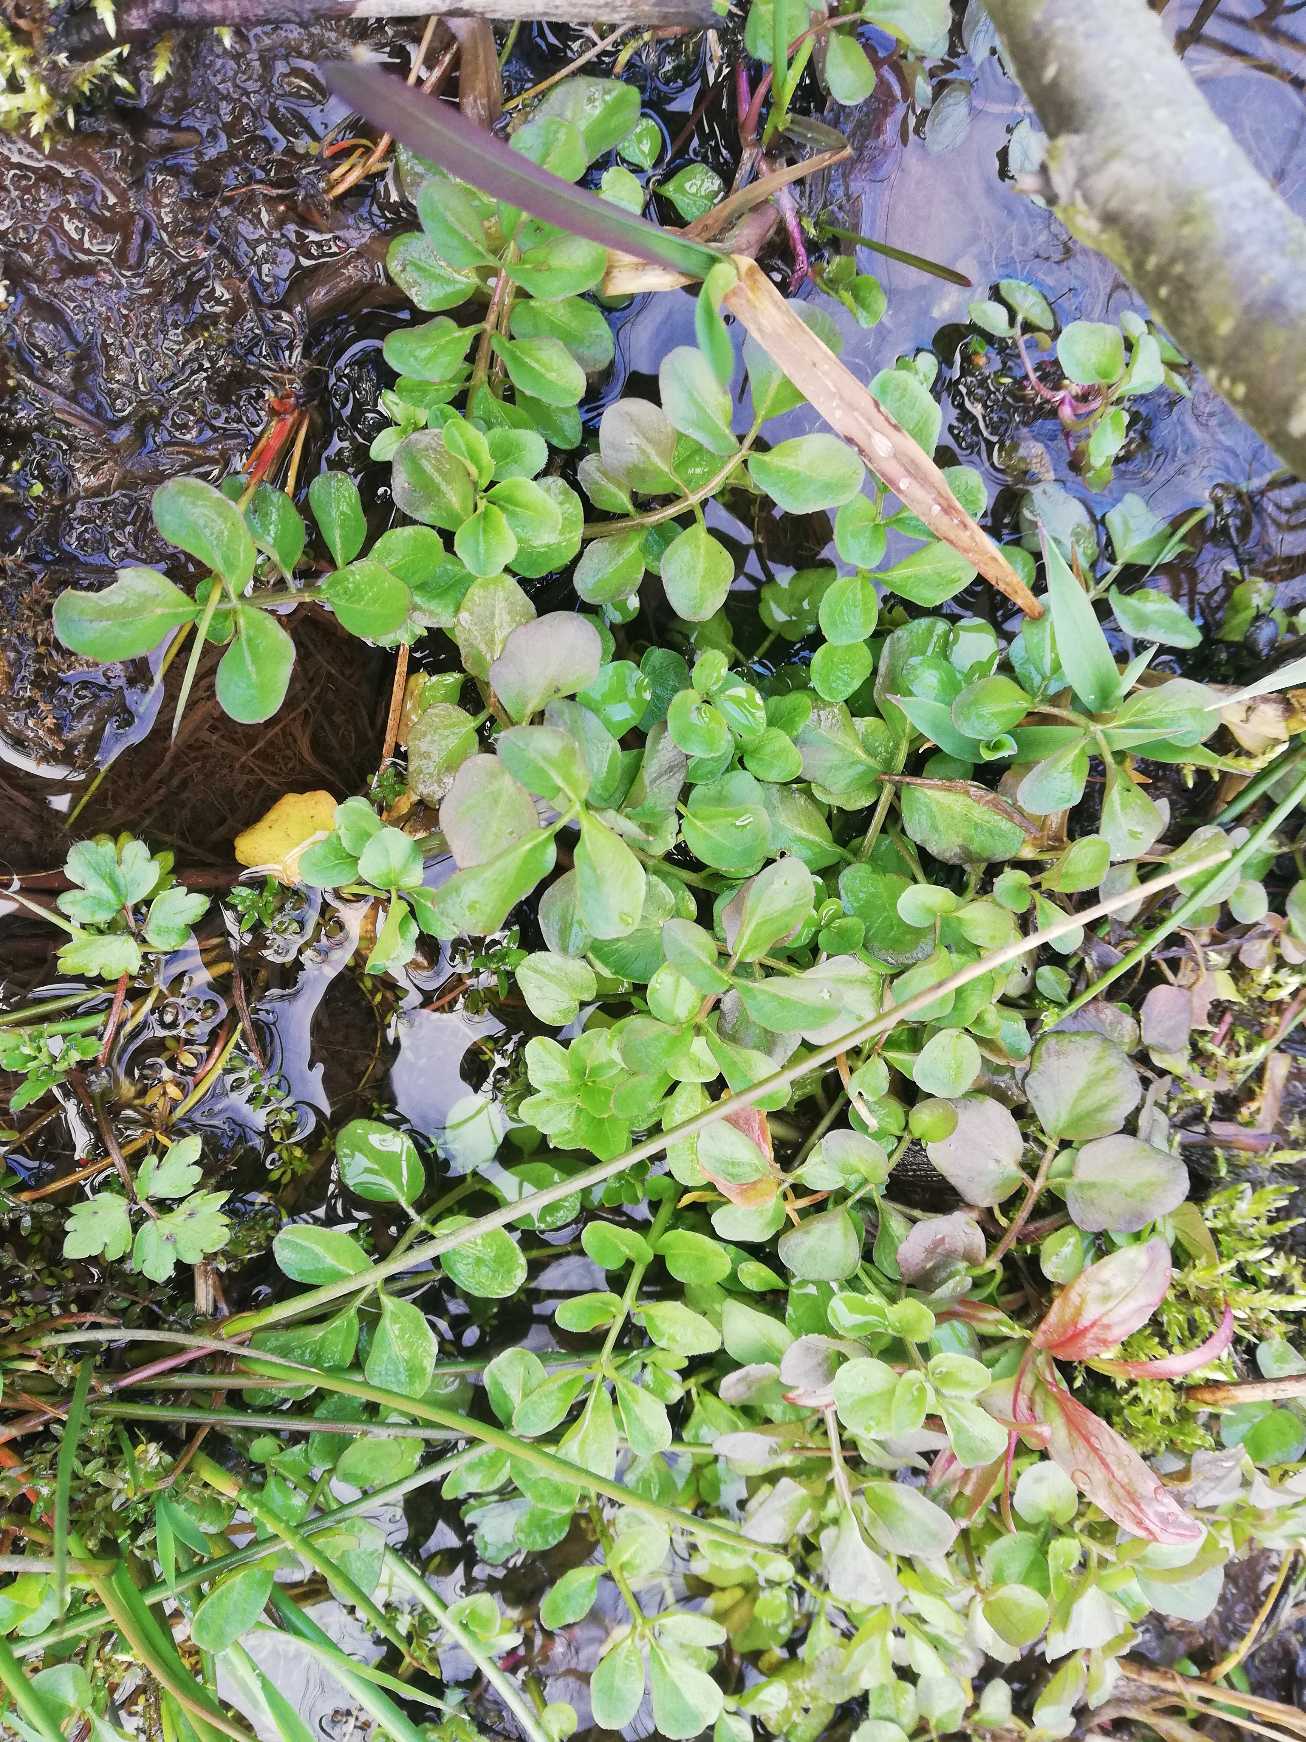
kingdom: Plantae
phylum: Tracheophyta
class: Magnoliopsida
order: Brassicales
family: Brassicaceae
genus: Cardamine
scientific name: Cardamine pratensis
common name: Engkarse
